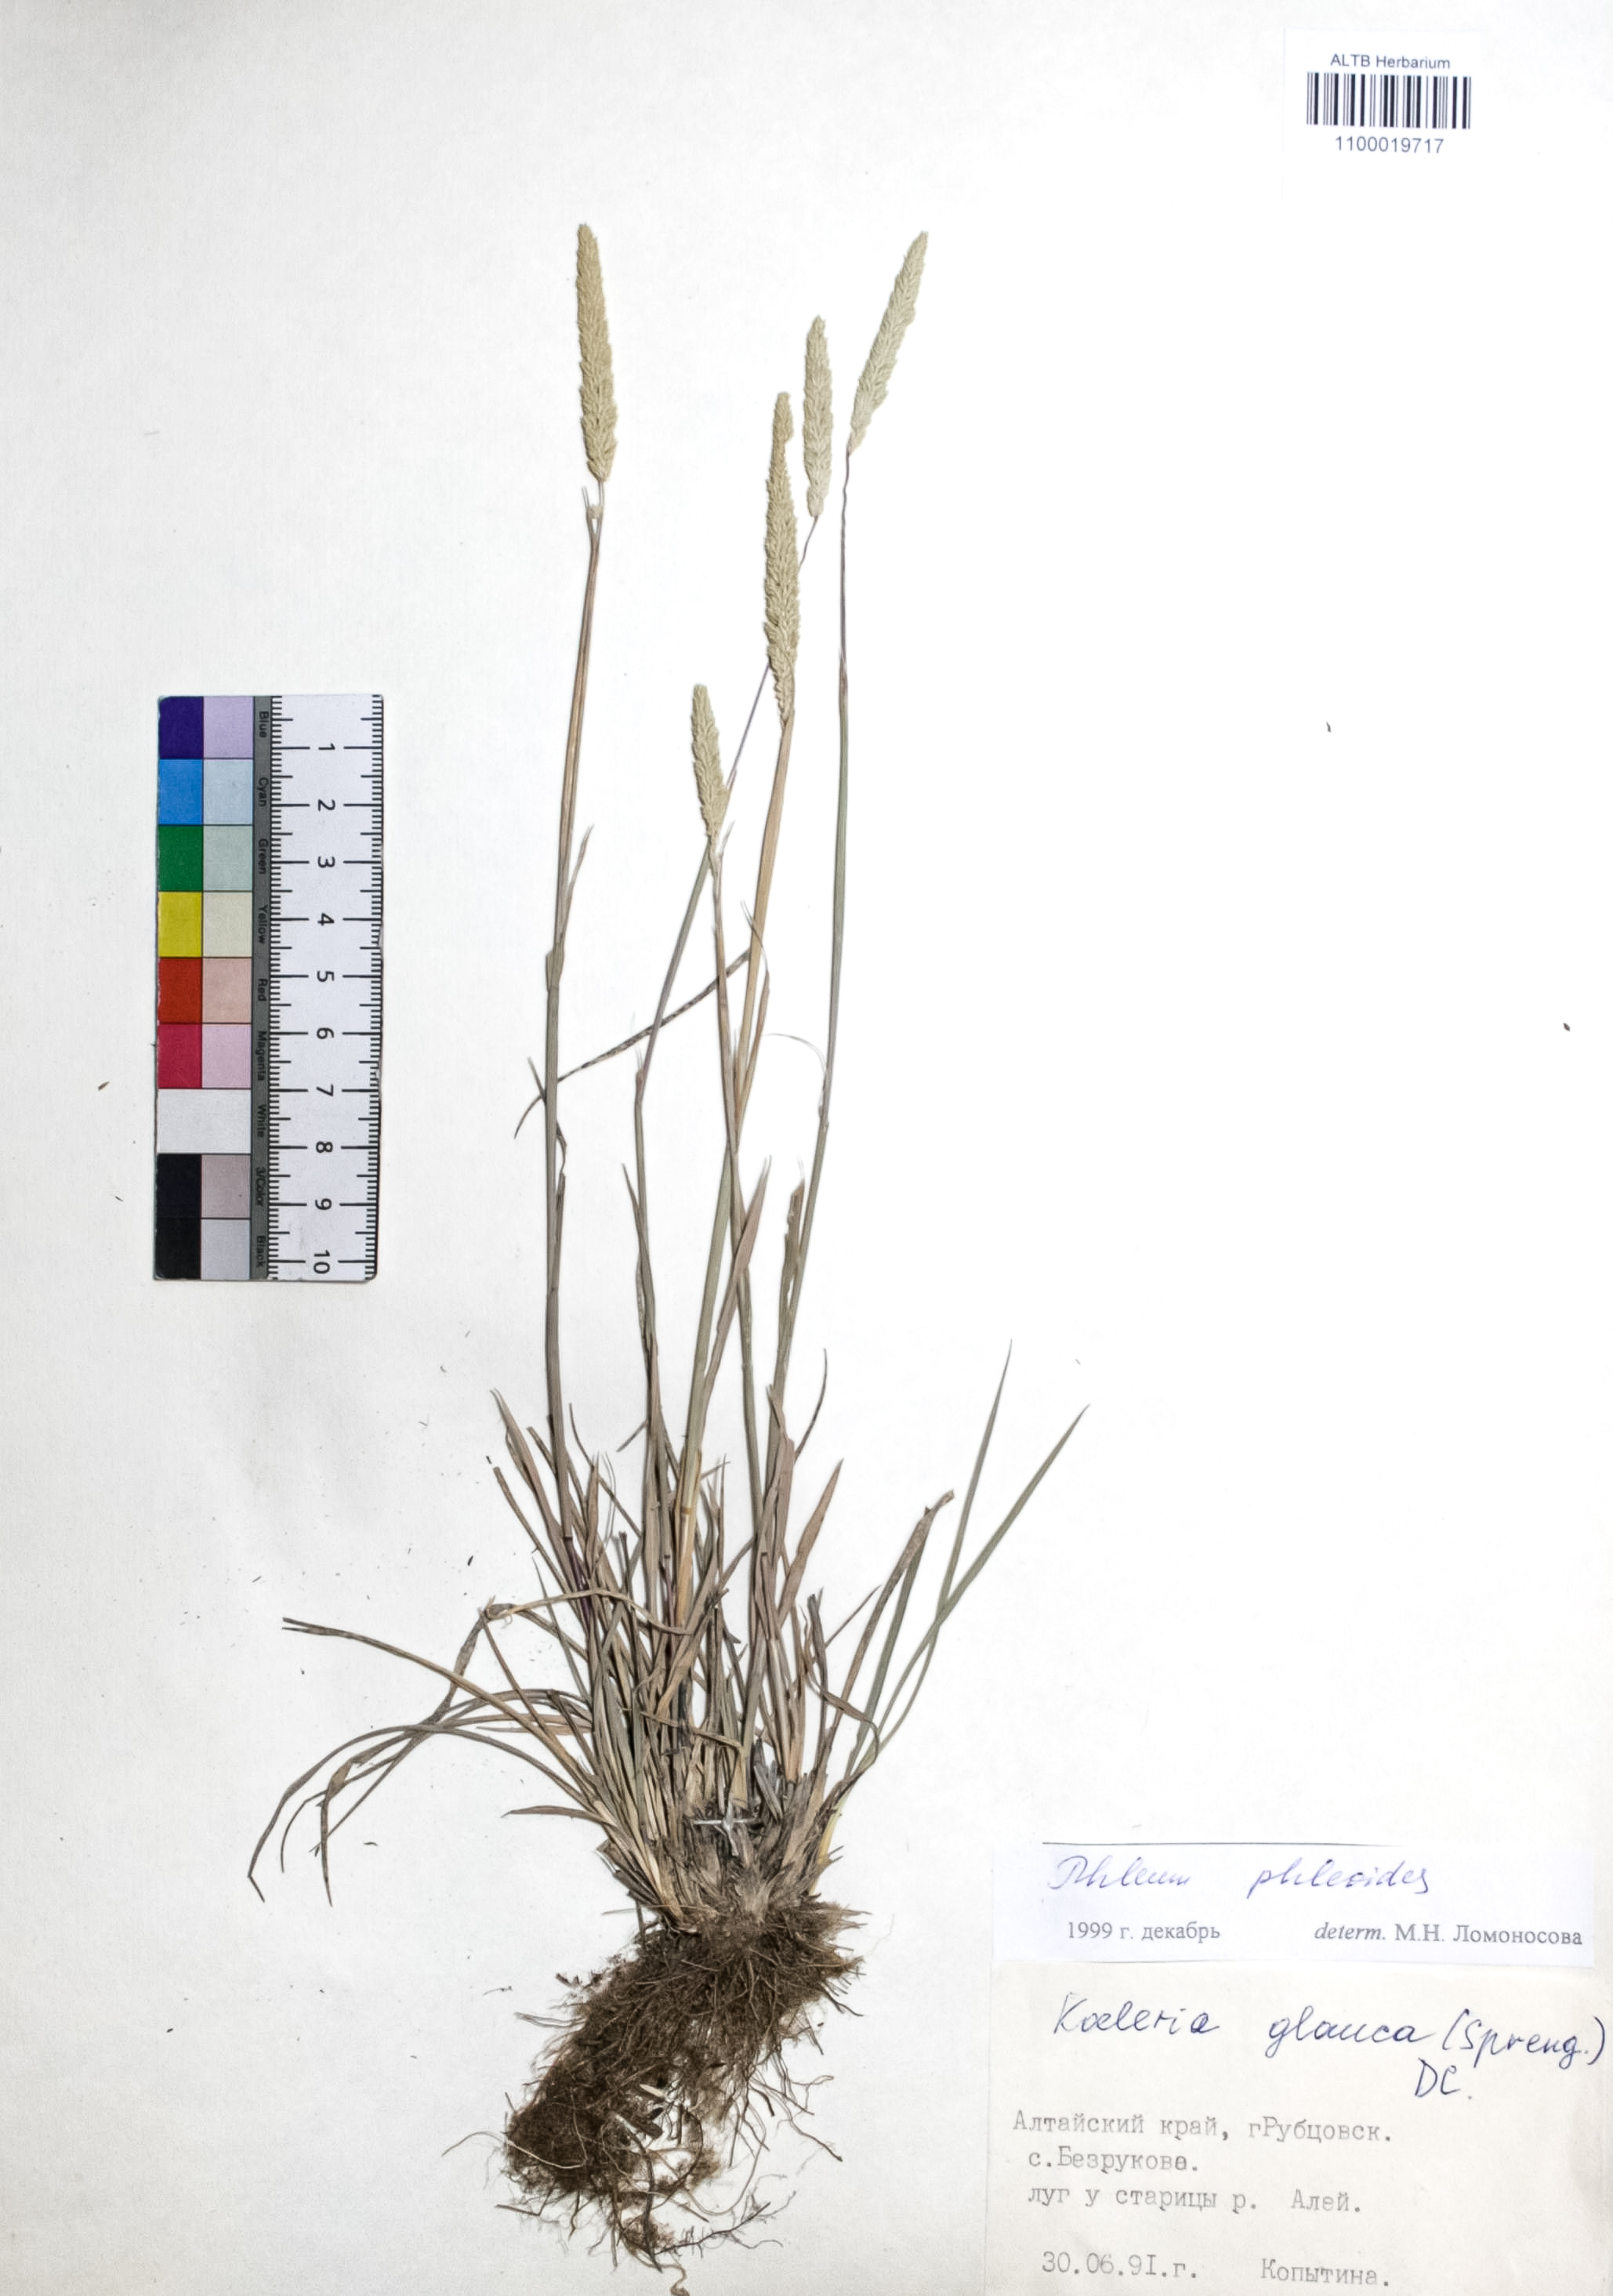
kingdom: Plantae
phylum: Tracheophyta
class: Liliopsida
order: Poales
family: Poaceae
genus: Phleum
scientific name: Phleum phleoides
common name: Purple-stem cat's-tail
